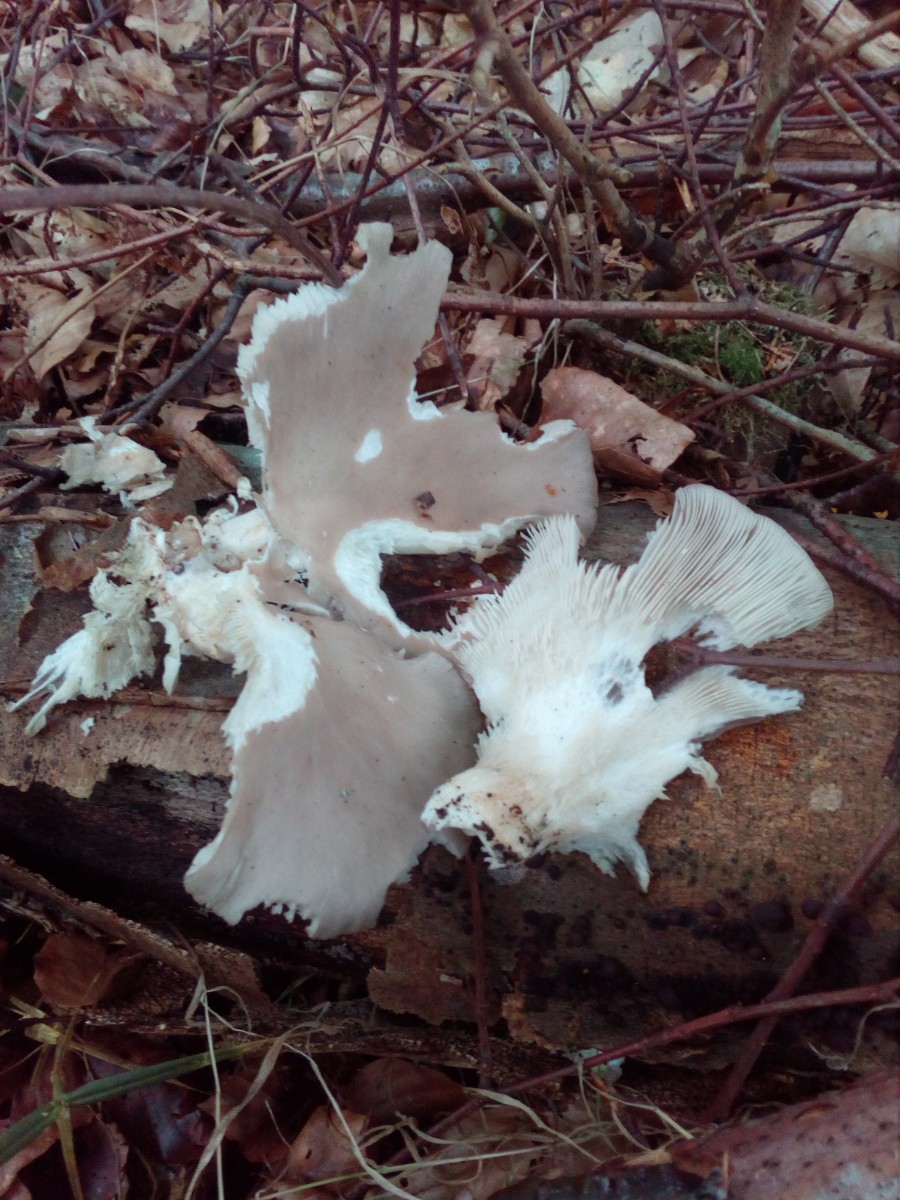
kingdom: Fungi
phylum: Basidiomycota
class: Agaricomycetes
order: Agaricales
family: Pleurotaceae
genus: Pleurotus
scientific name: Pleurotus ostreatus
